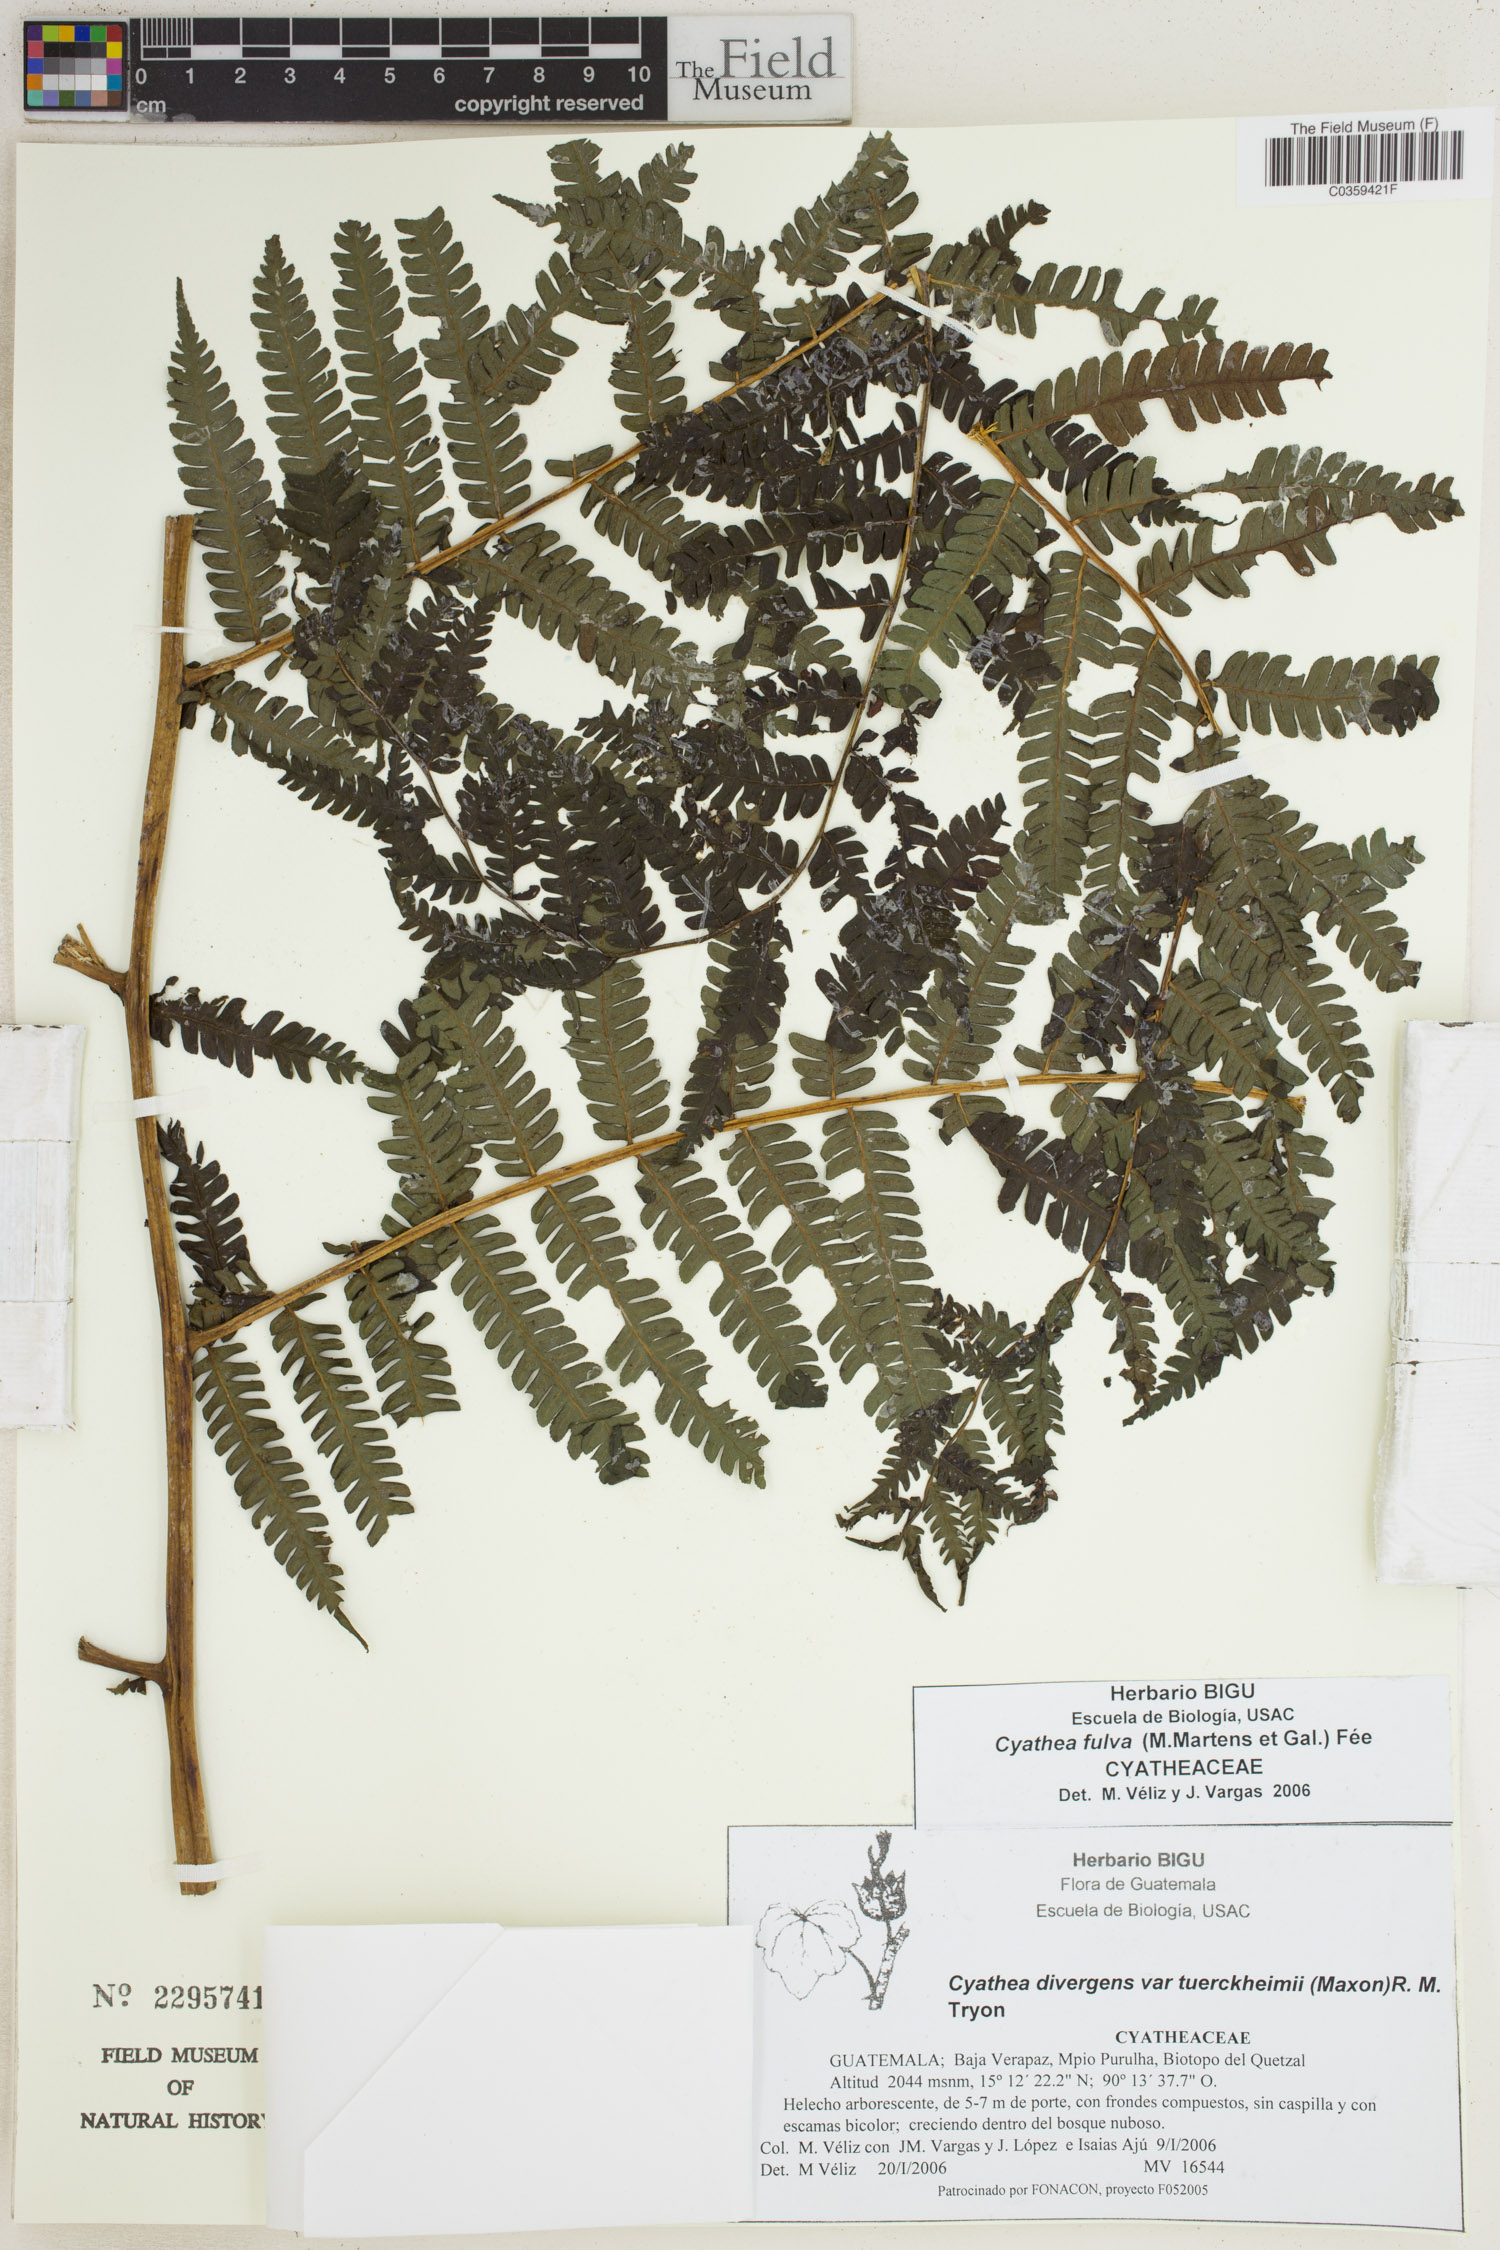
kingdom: Plantae
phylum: Tracheophyta
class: Polypodiopsida
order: Cyatheales
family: Cyatheaceae
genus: Cyathea
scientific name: Cyathea fulva
